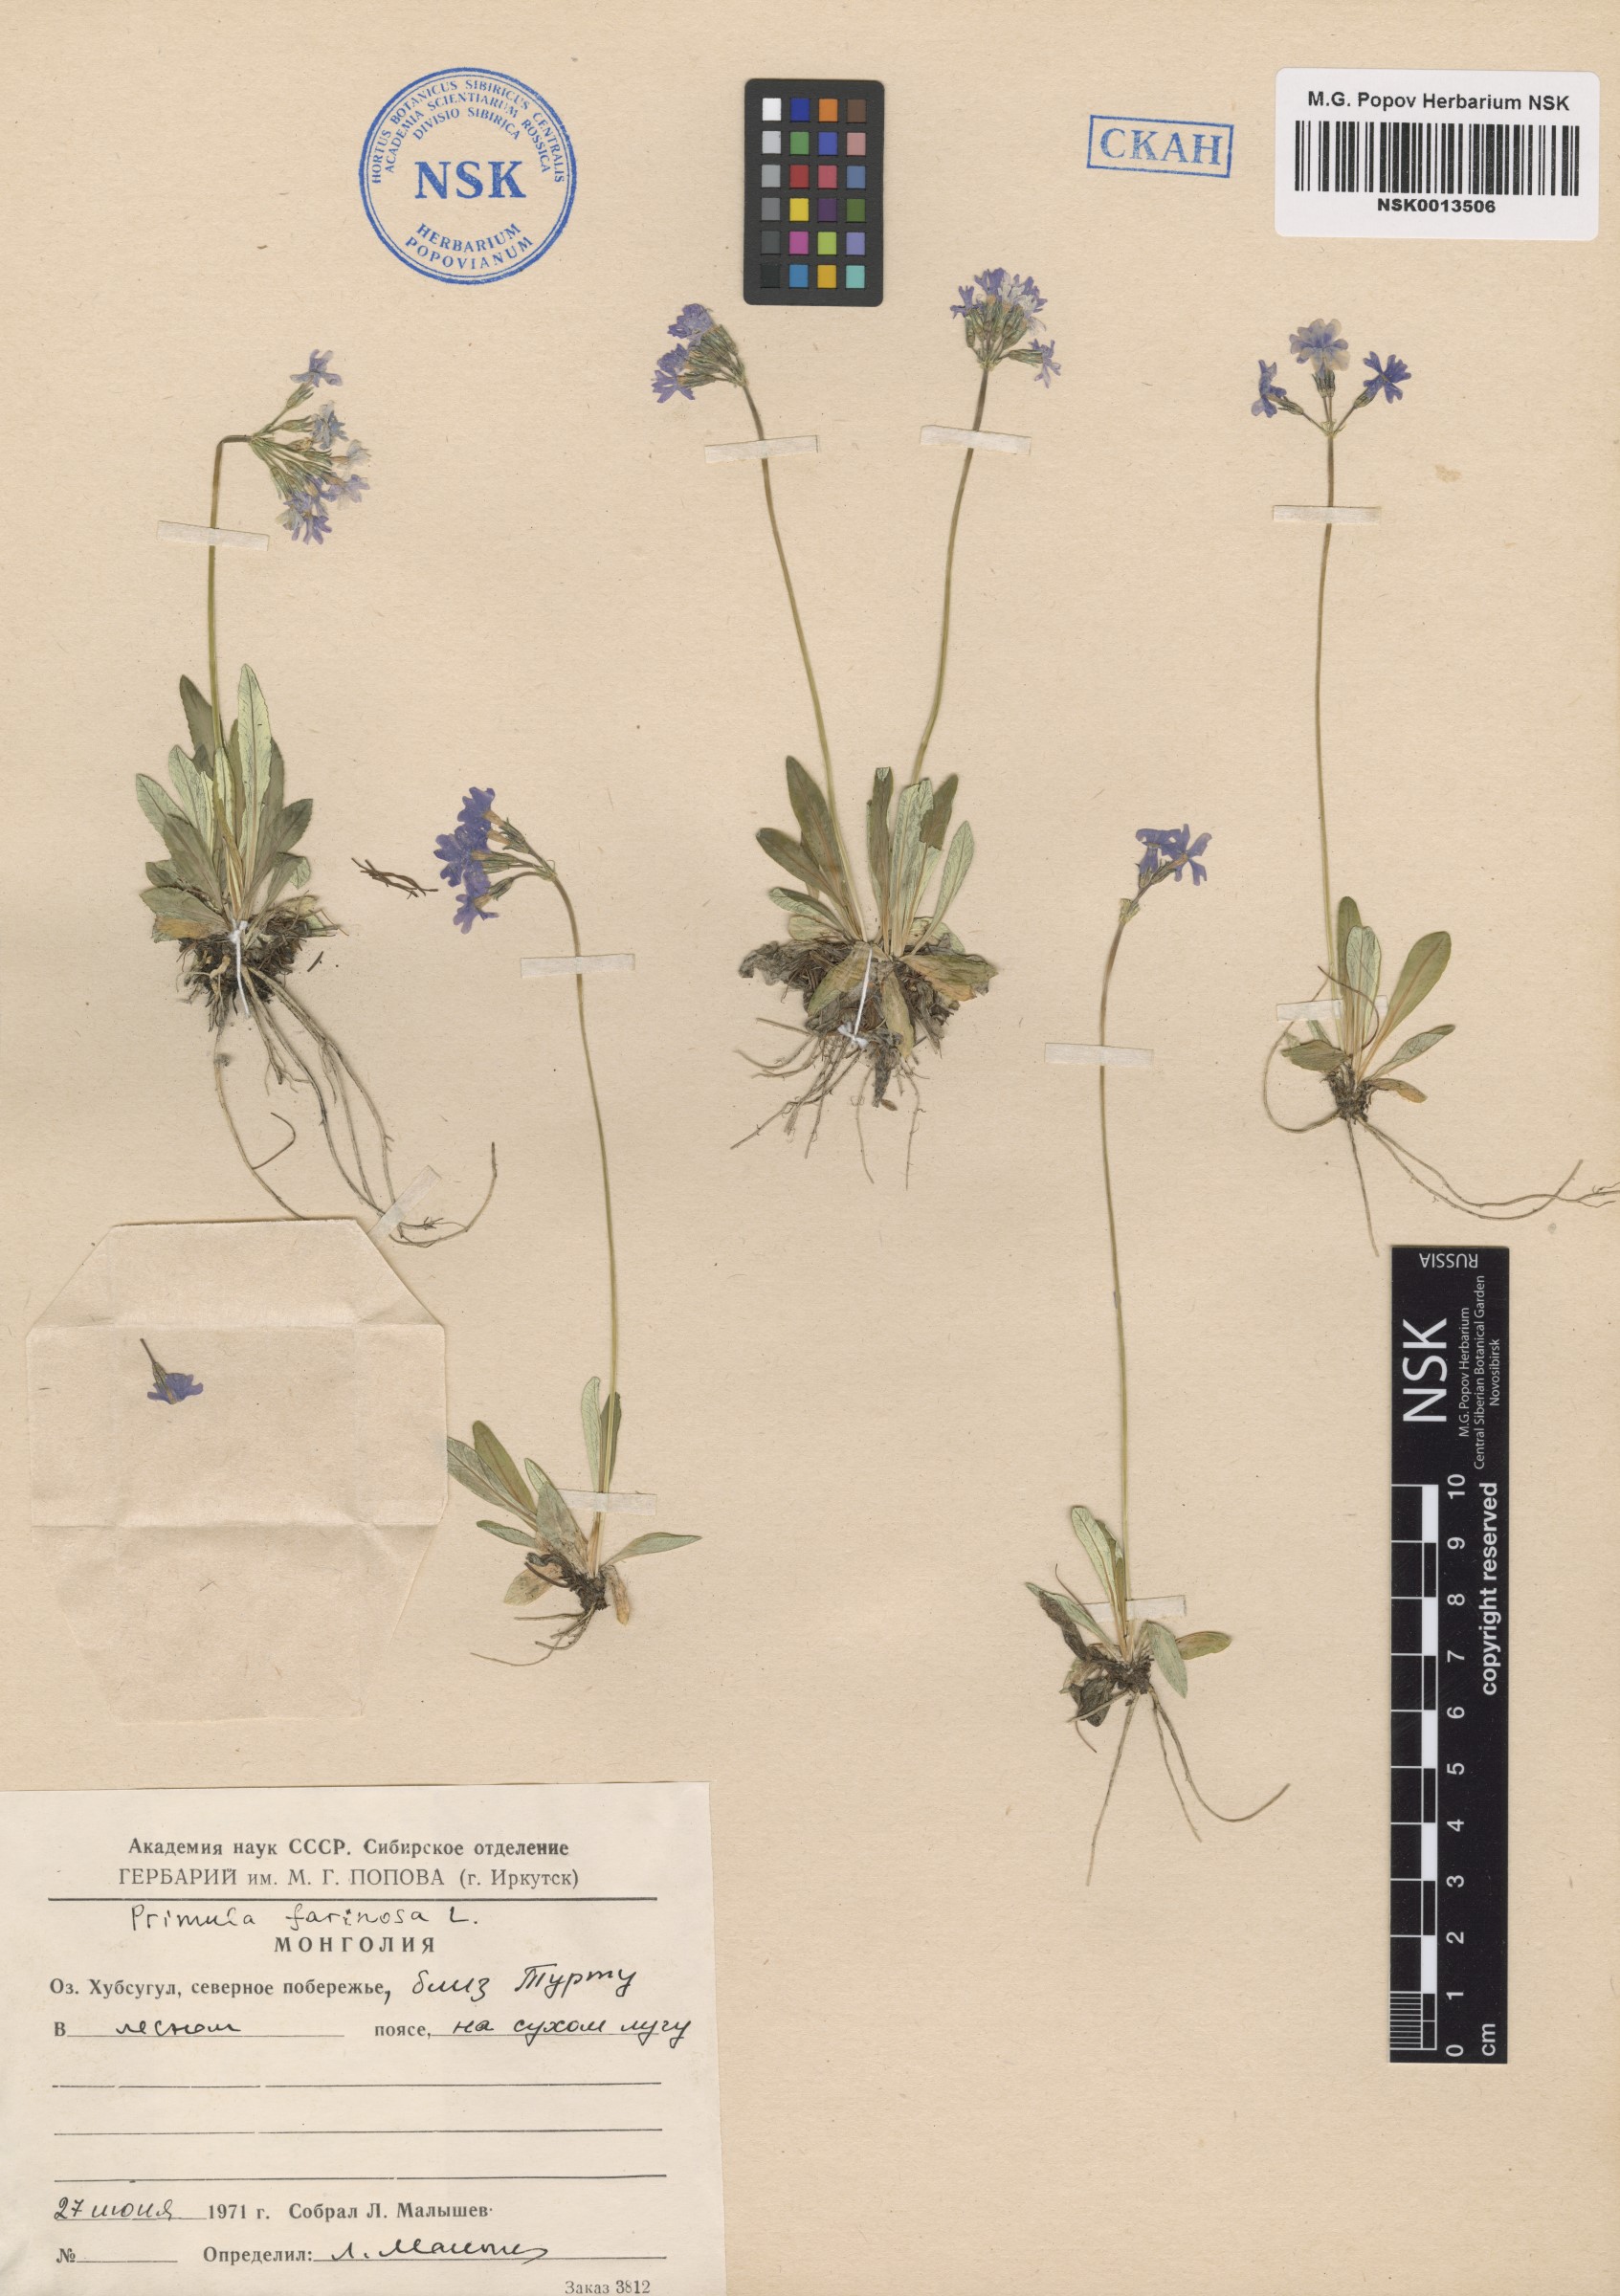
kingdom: Plantae
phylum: Tracheophyta
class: Magnoliopsida
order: Ericales
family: Primulaceae
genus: Primula
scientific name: Primula farinosa
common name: Bird's-eye primrose
